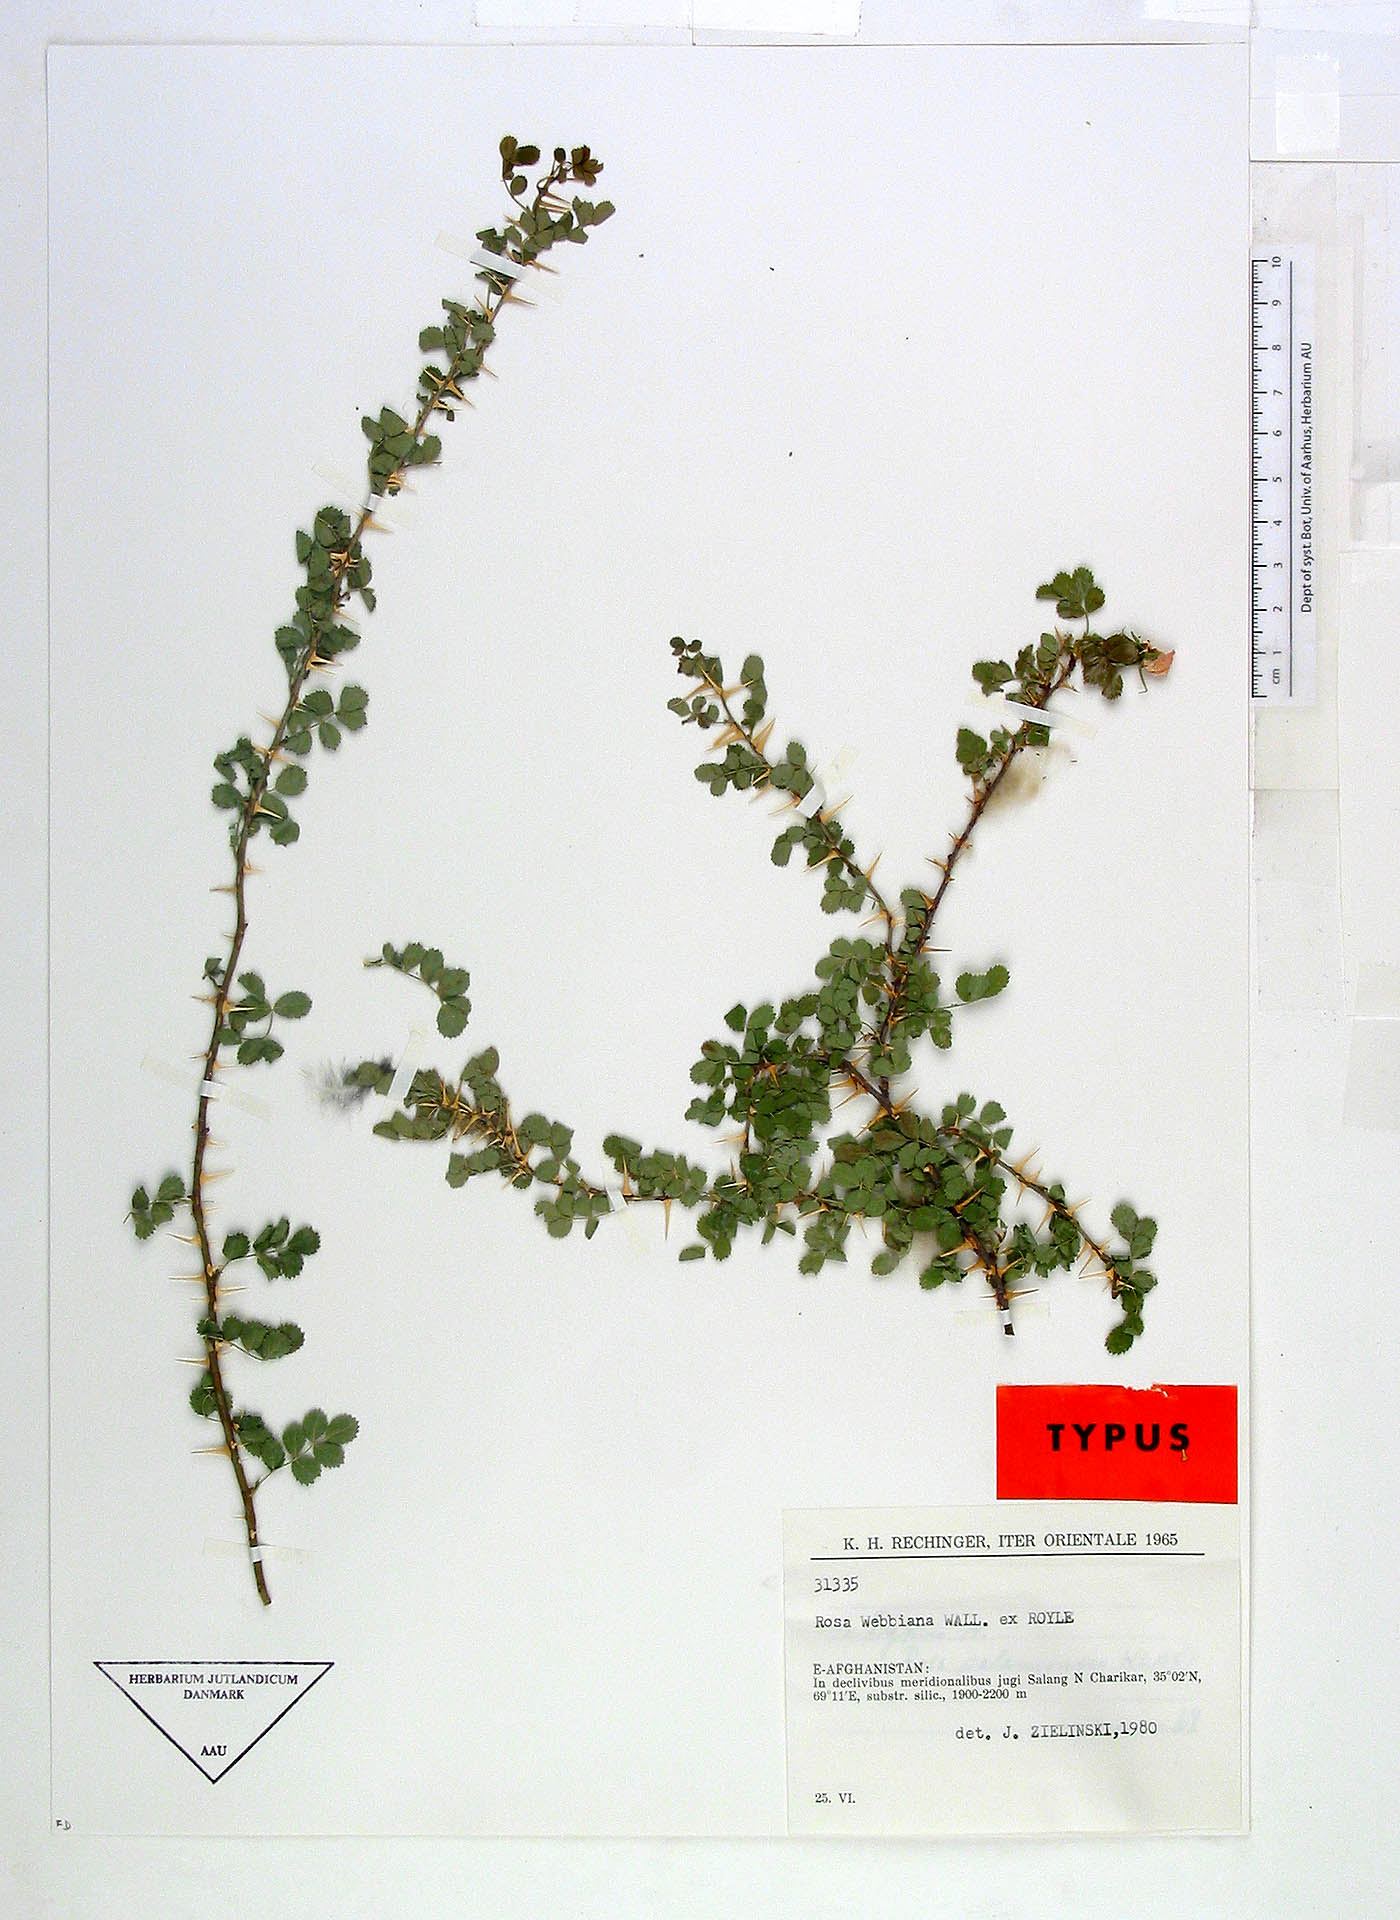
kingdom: Plantae
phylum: Tracheophyta
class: Magnoliopsida
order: Rosales
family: Rosaceae
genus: Rosa
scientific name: Rosa webbiana
